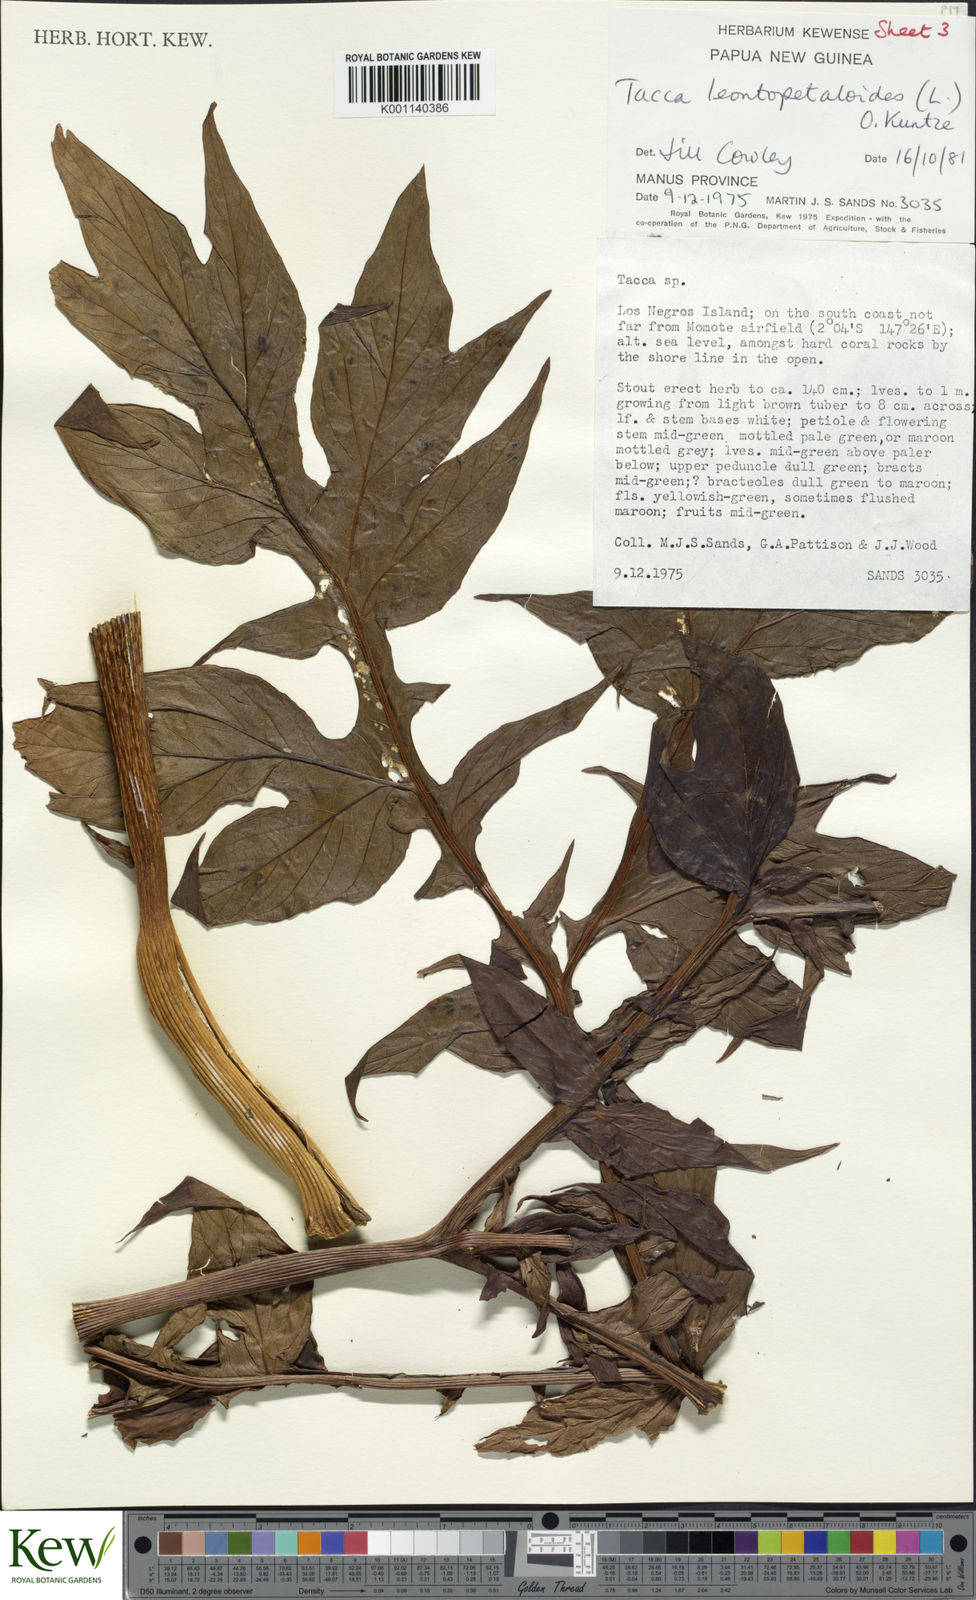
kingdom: Plantae
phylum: Tracheophyta
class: Liliopsida
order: Dioscoreales
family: Dioscoreaceae
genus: Tacca
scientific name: Tacca leontopetaloides
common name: Arrowroot
